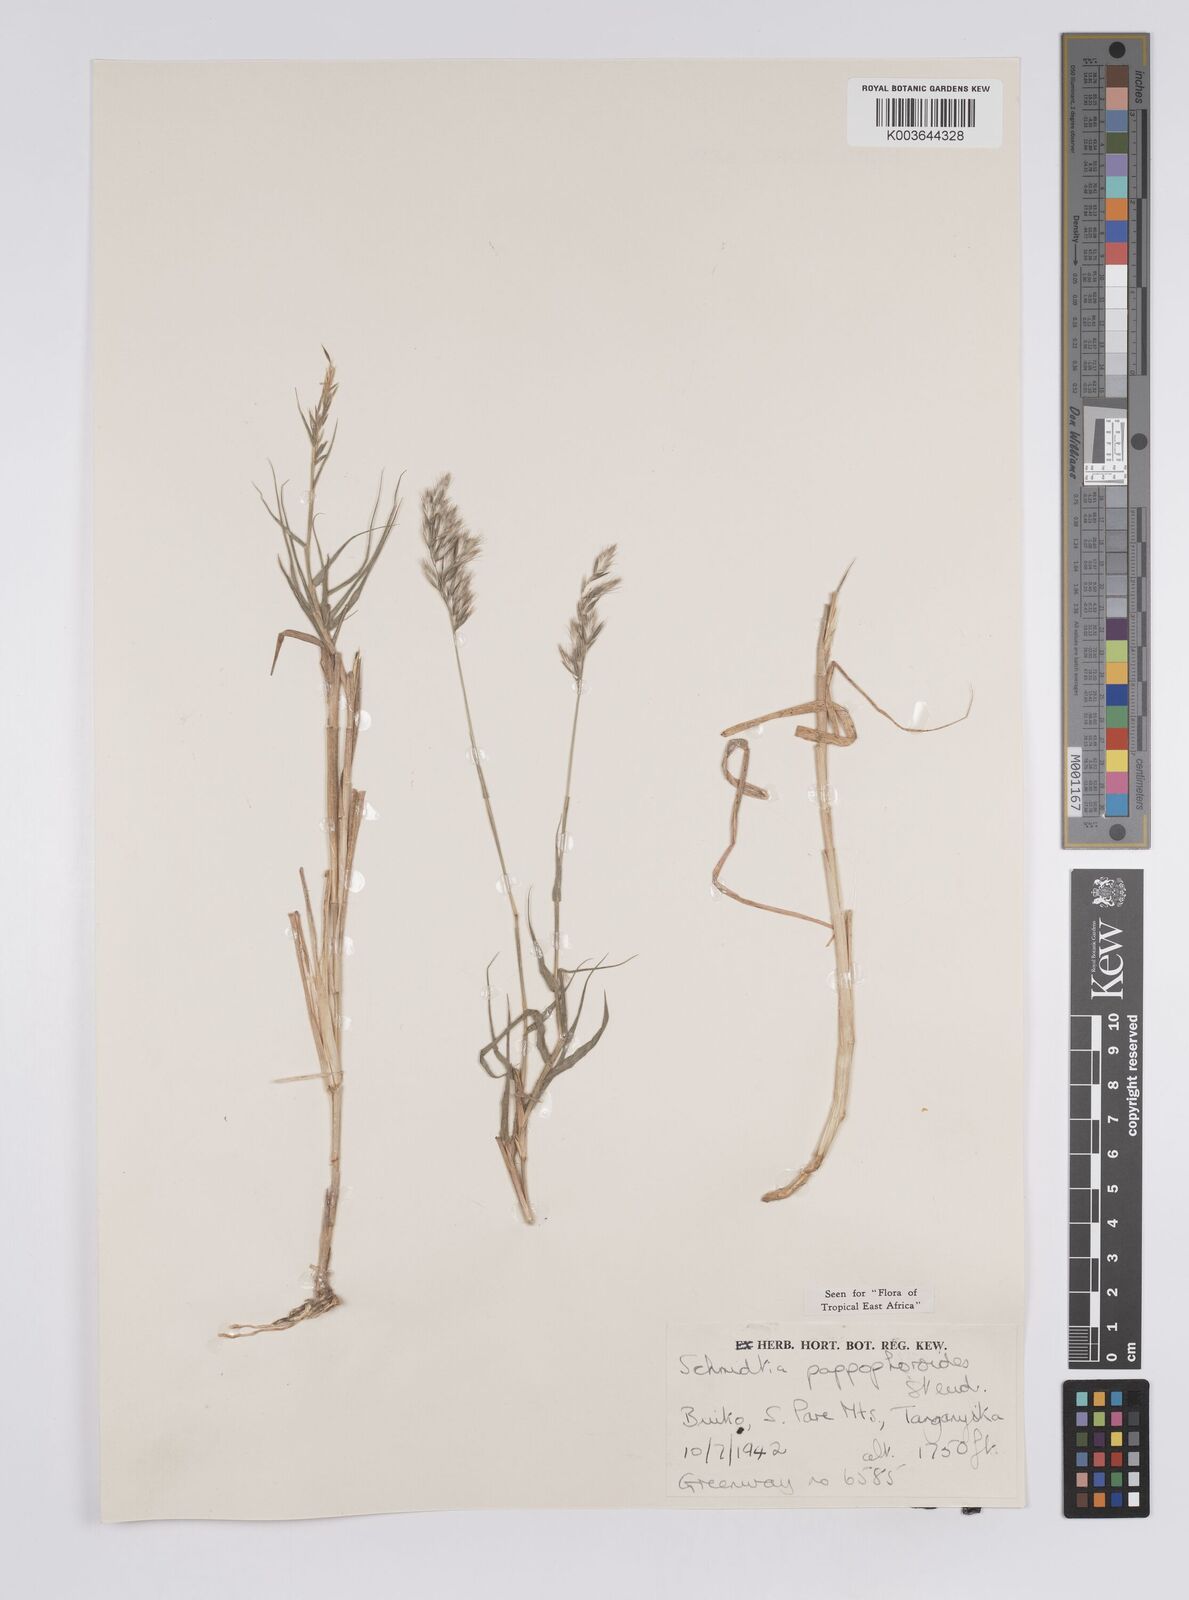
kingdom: Plantae
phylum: Tracheophyta
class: Liliopsida
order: Poales
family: Poaceae
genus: Schmidtia
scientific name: Schmidtia pappophoroides
